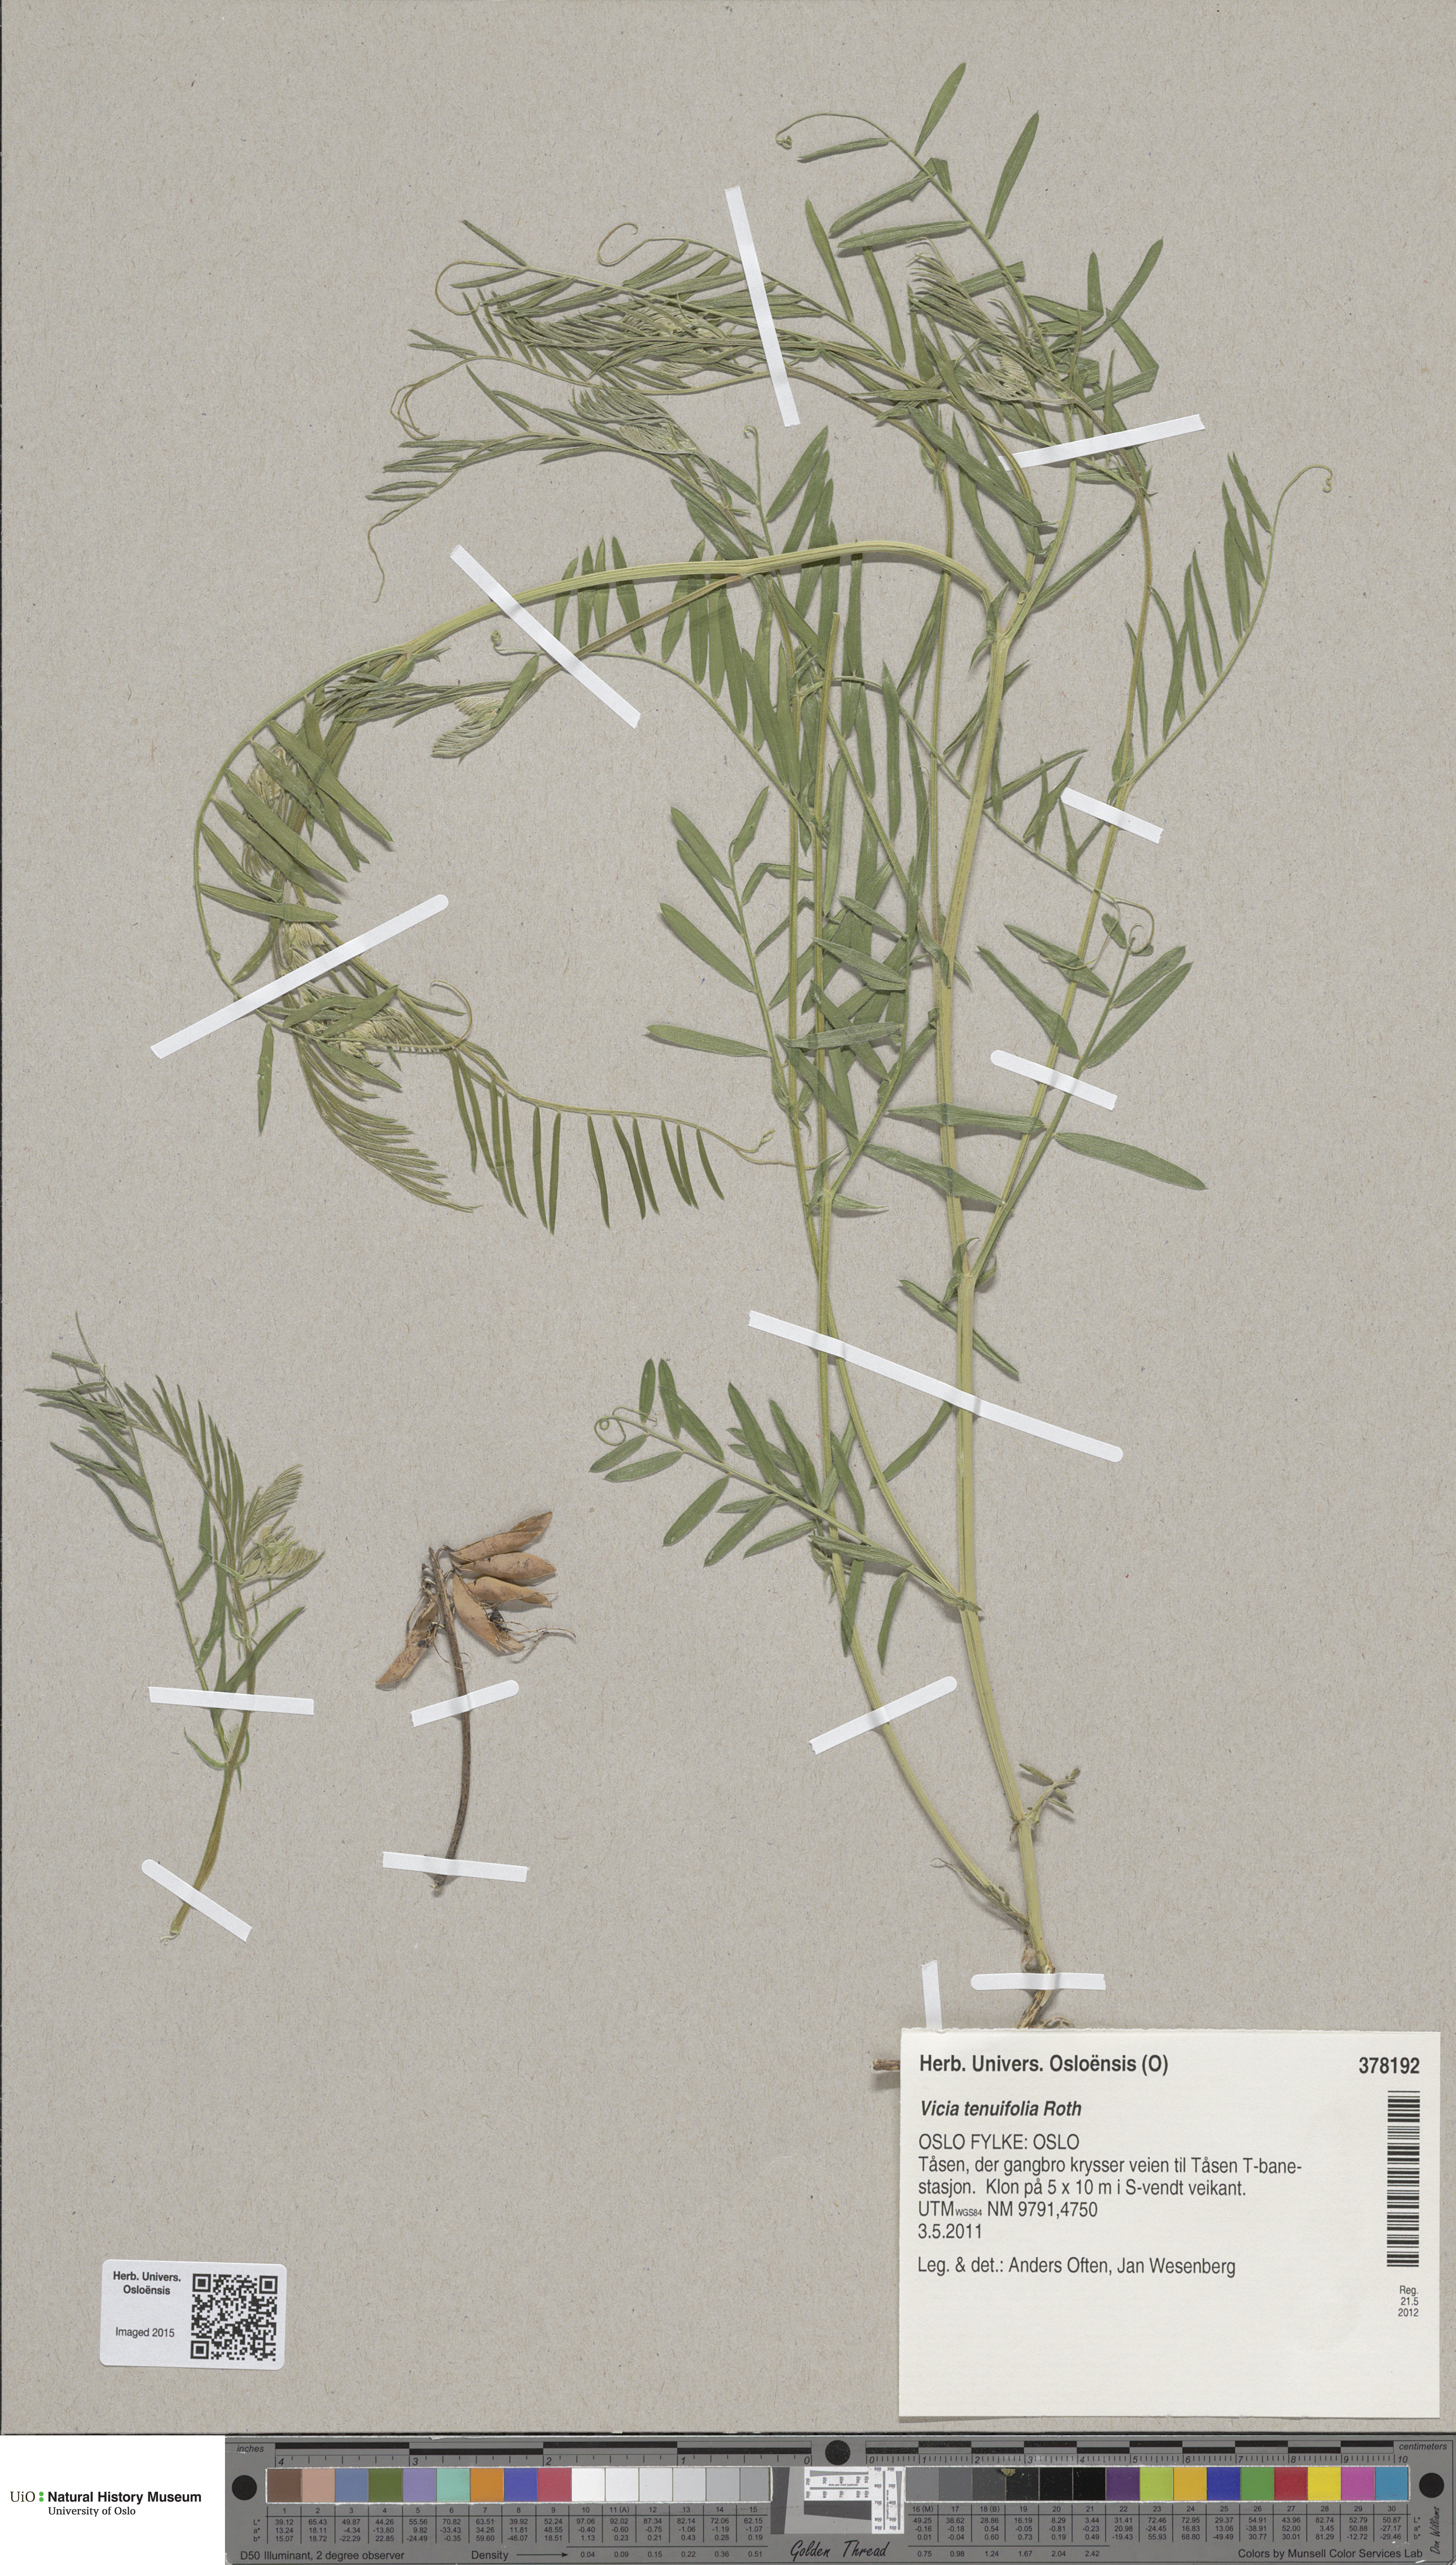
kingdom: Plantae
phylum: Tracheophyta
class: Magnoliopsida
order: Fabales
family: Fabaceae
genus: Vicia
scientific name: Vicia tenuifolia
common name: Fine-leaved vetch
